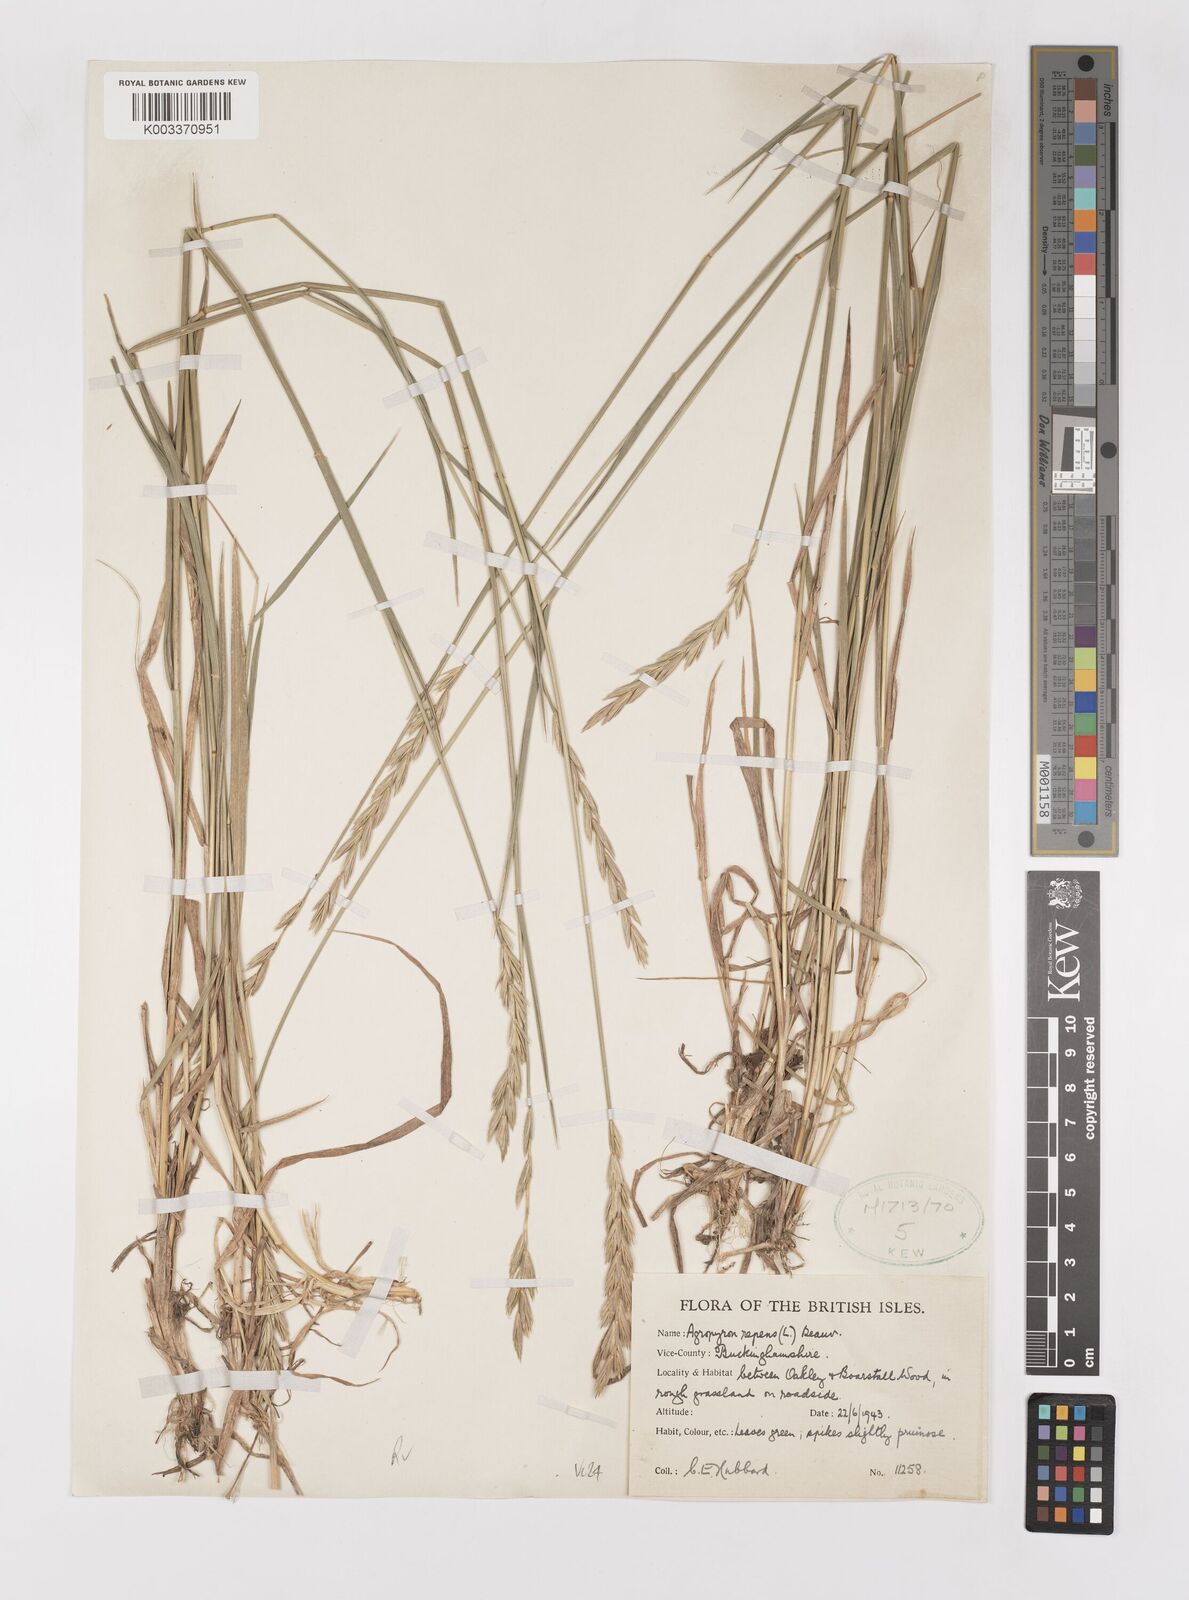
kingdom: Plantae
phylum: Tracheophyta
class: Liliopsida
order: Poales
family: Poaceae
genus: Elymus
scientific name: Elymus repens
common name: Quackgrass
